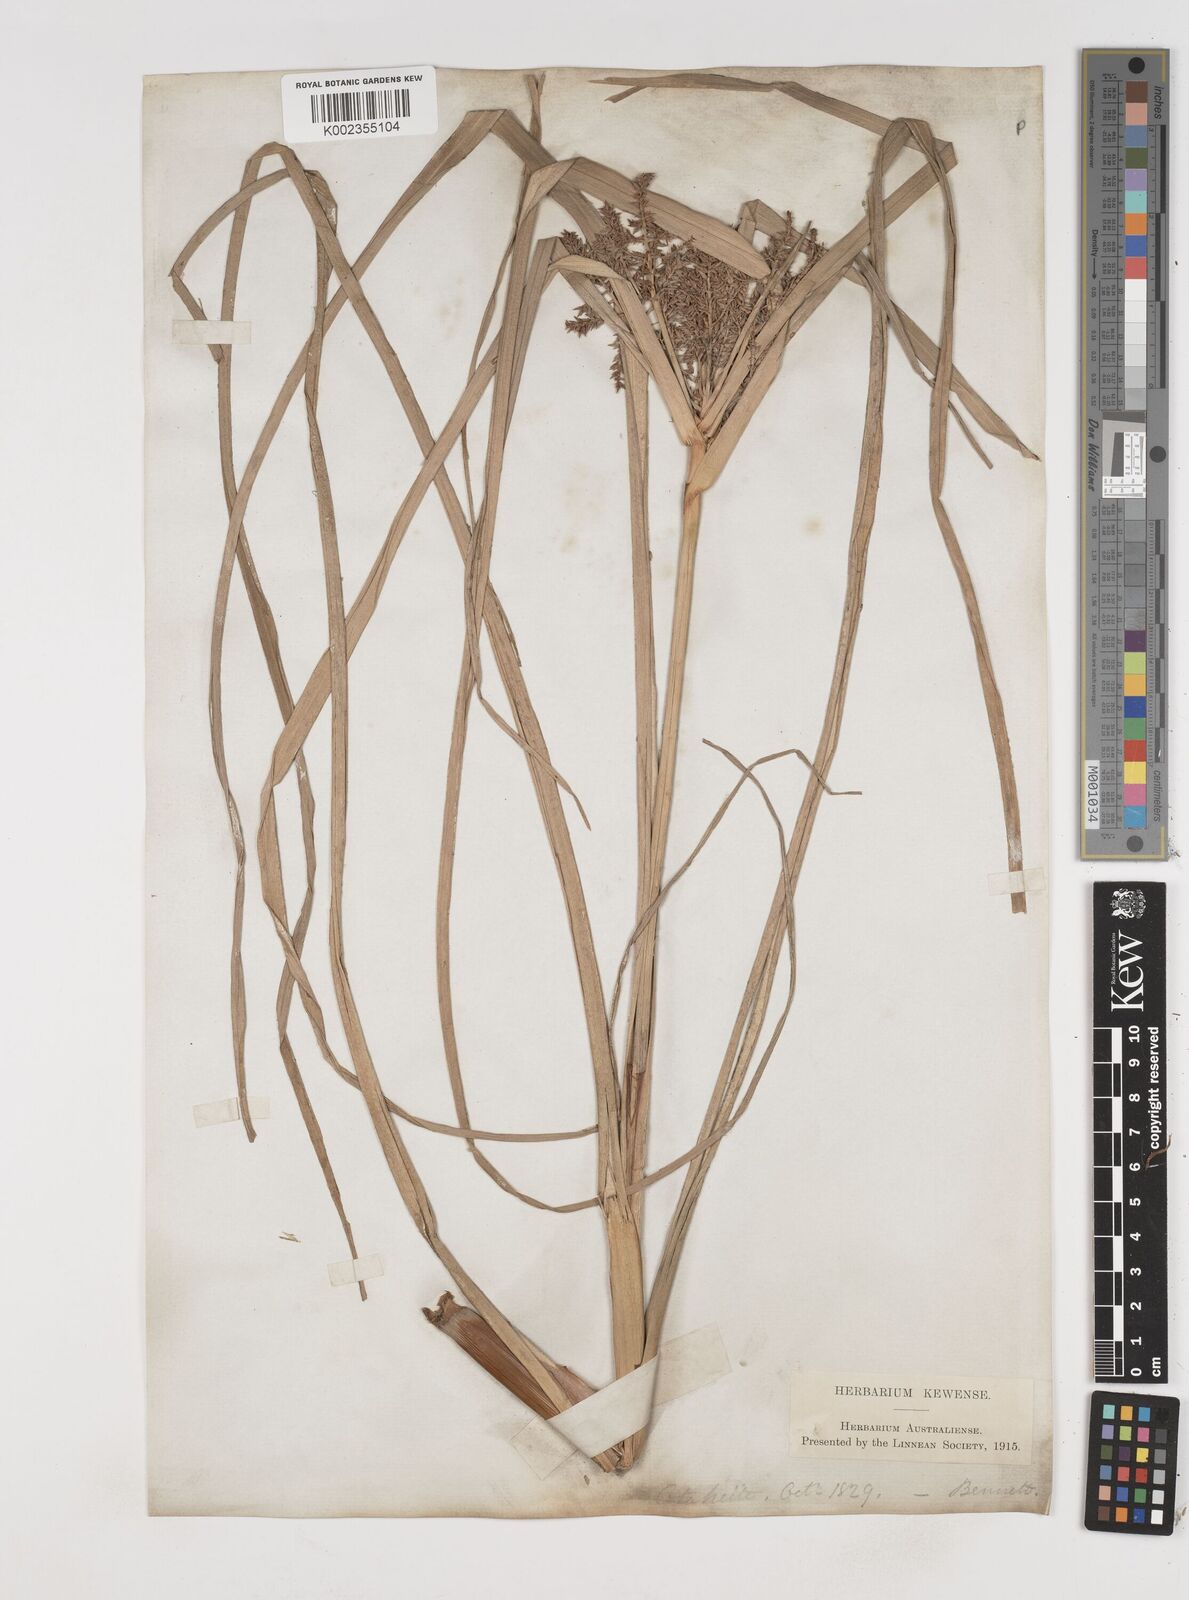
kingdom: Plantae
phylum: Tracheophyta
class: Liliopsida
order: Poales
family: Cyperaceae
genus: Cyperus
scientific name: Cyperus javanicus
